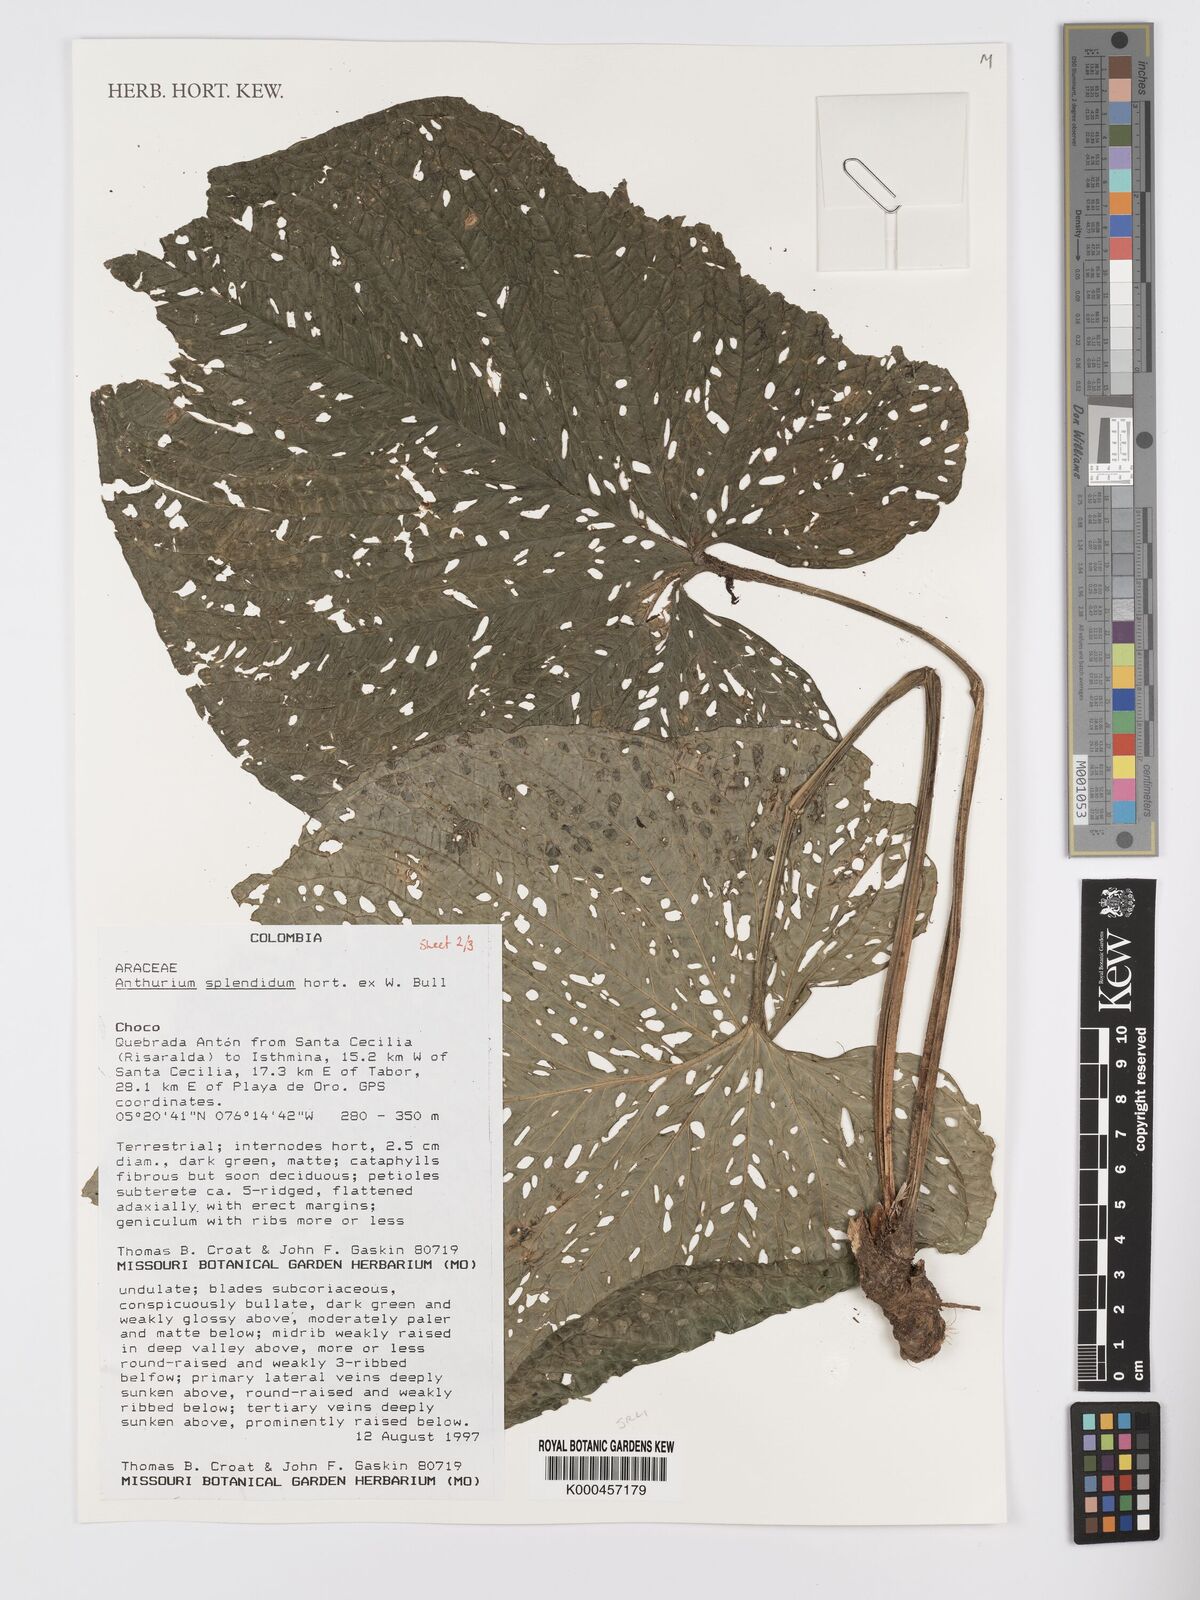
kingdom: Plantae
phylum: Tracheophyta
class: Liliopsida
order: Alismatales
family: Araceae
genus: Anthurium
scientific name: Anthurium splendidum
